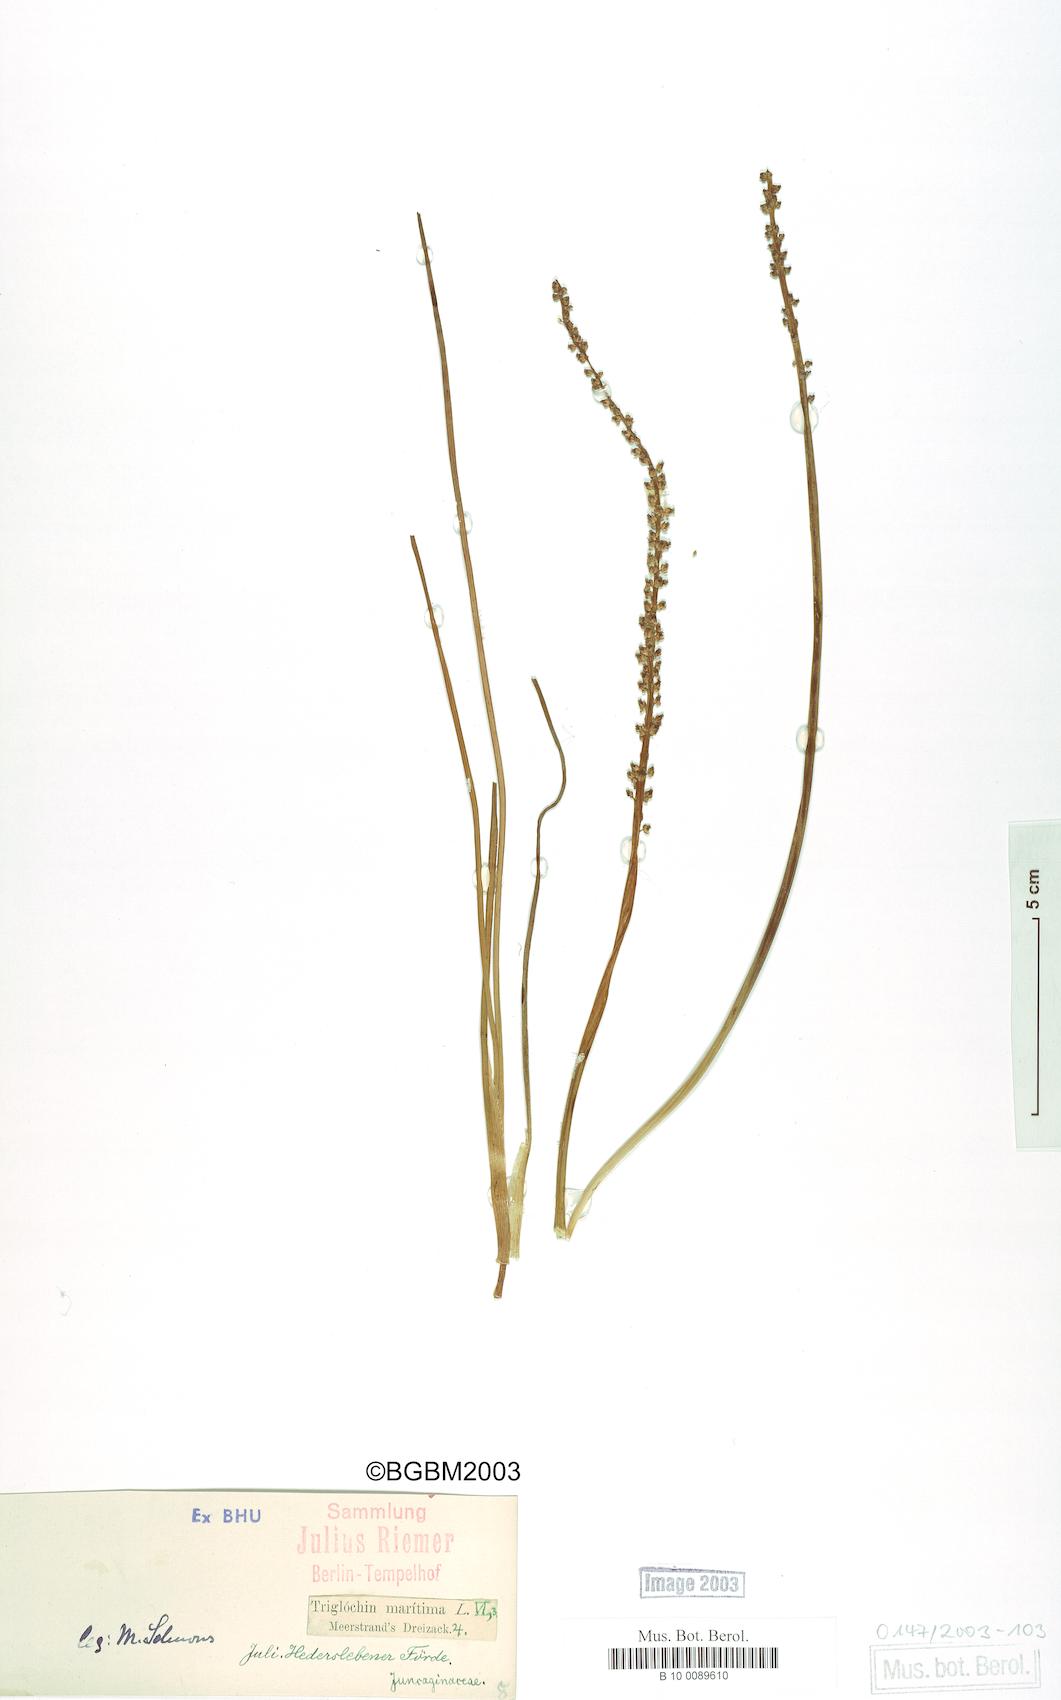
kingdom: Plantae
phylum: Tracheophyta
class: Liliopsida
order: Alismatales
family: Juncaginaceae
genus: Triglochin
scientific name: Triglochin maritima
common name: Sea arrowgrass
